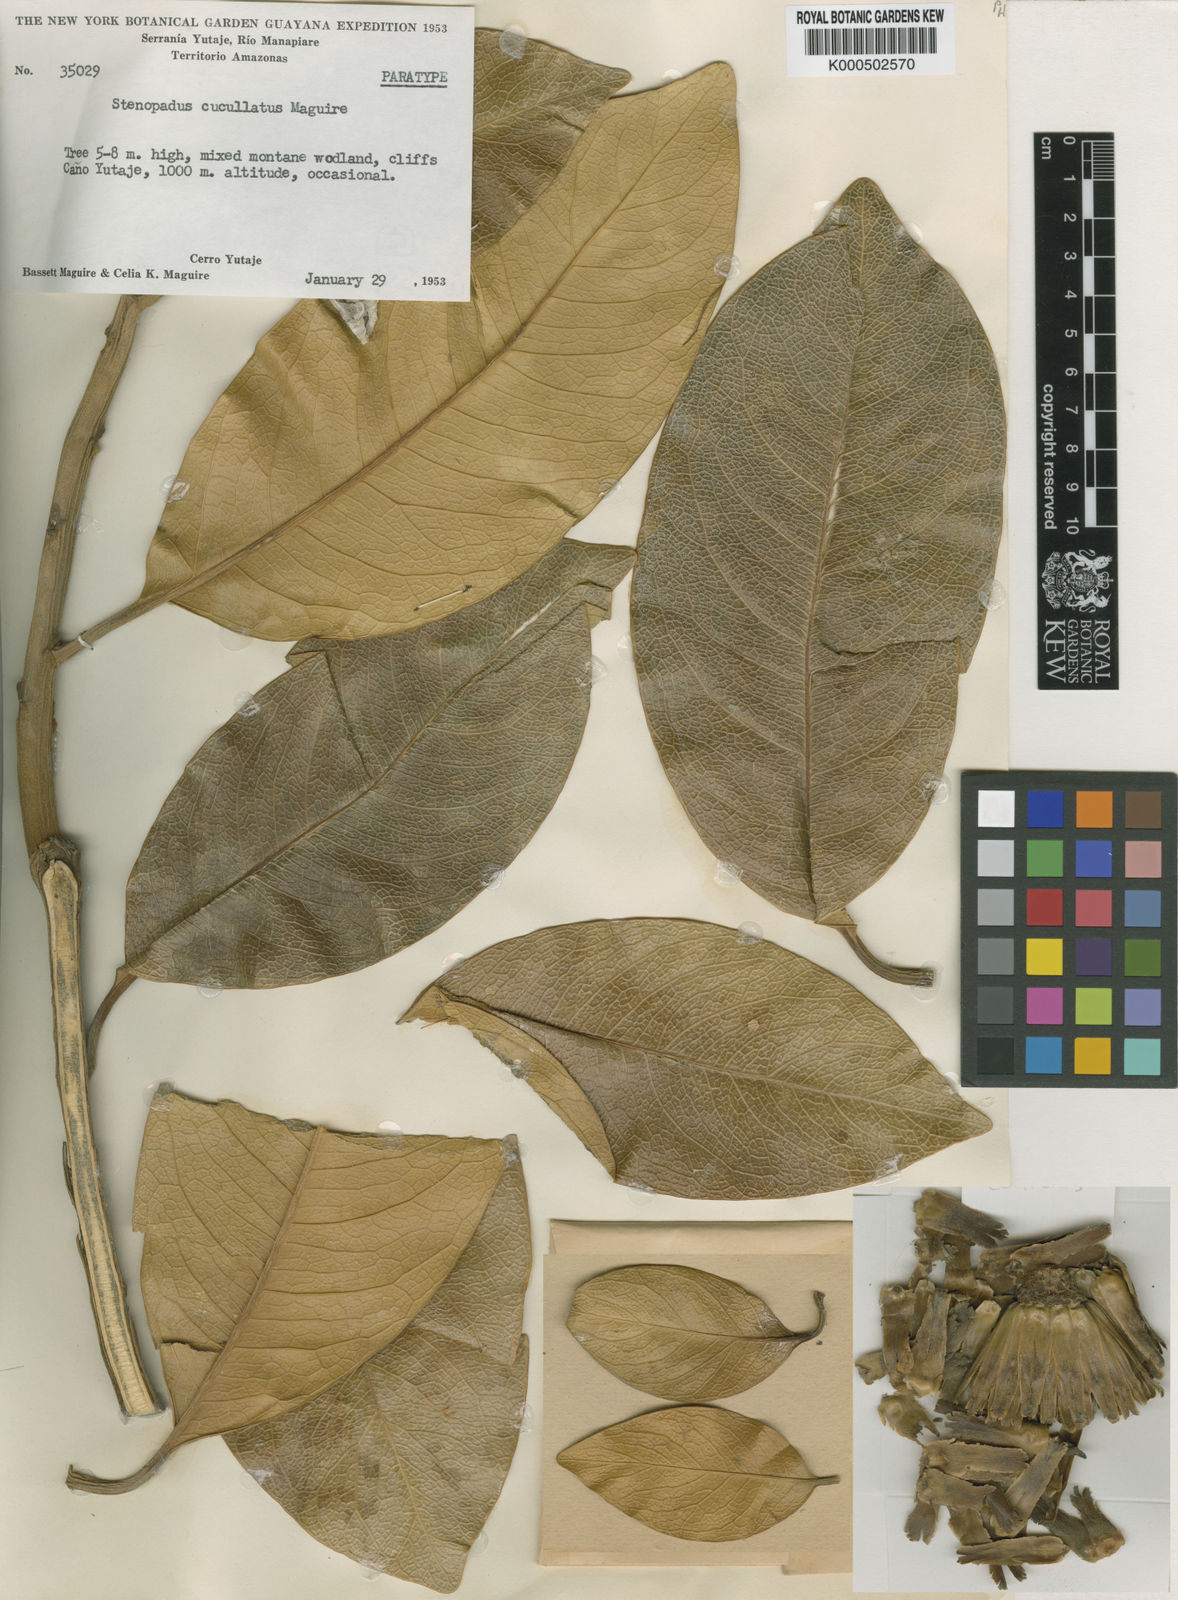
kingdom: Plantae
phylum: Tracheophyta
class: Magnoliopsida
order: Asterales
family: Asteraceae
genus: Stenopadus
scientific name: Stenopadus cucullatus
